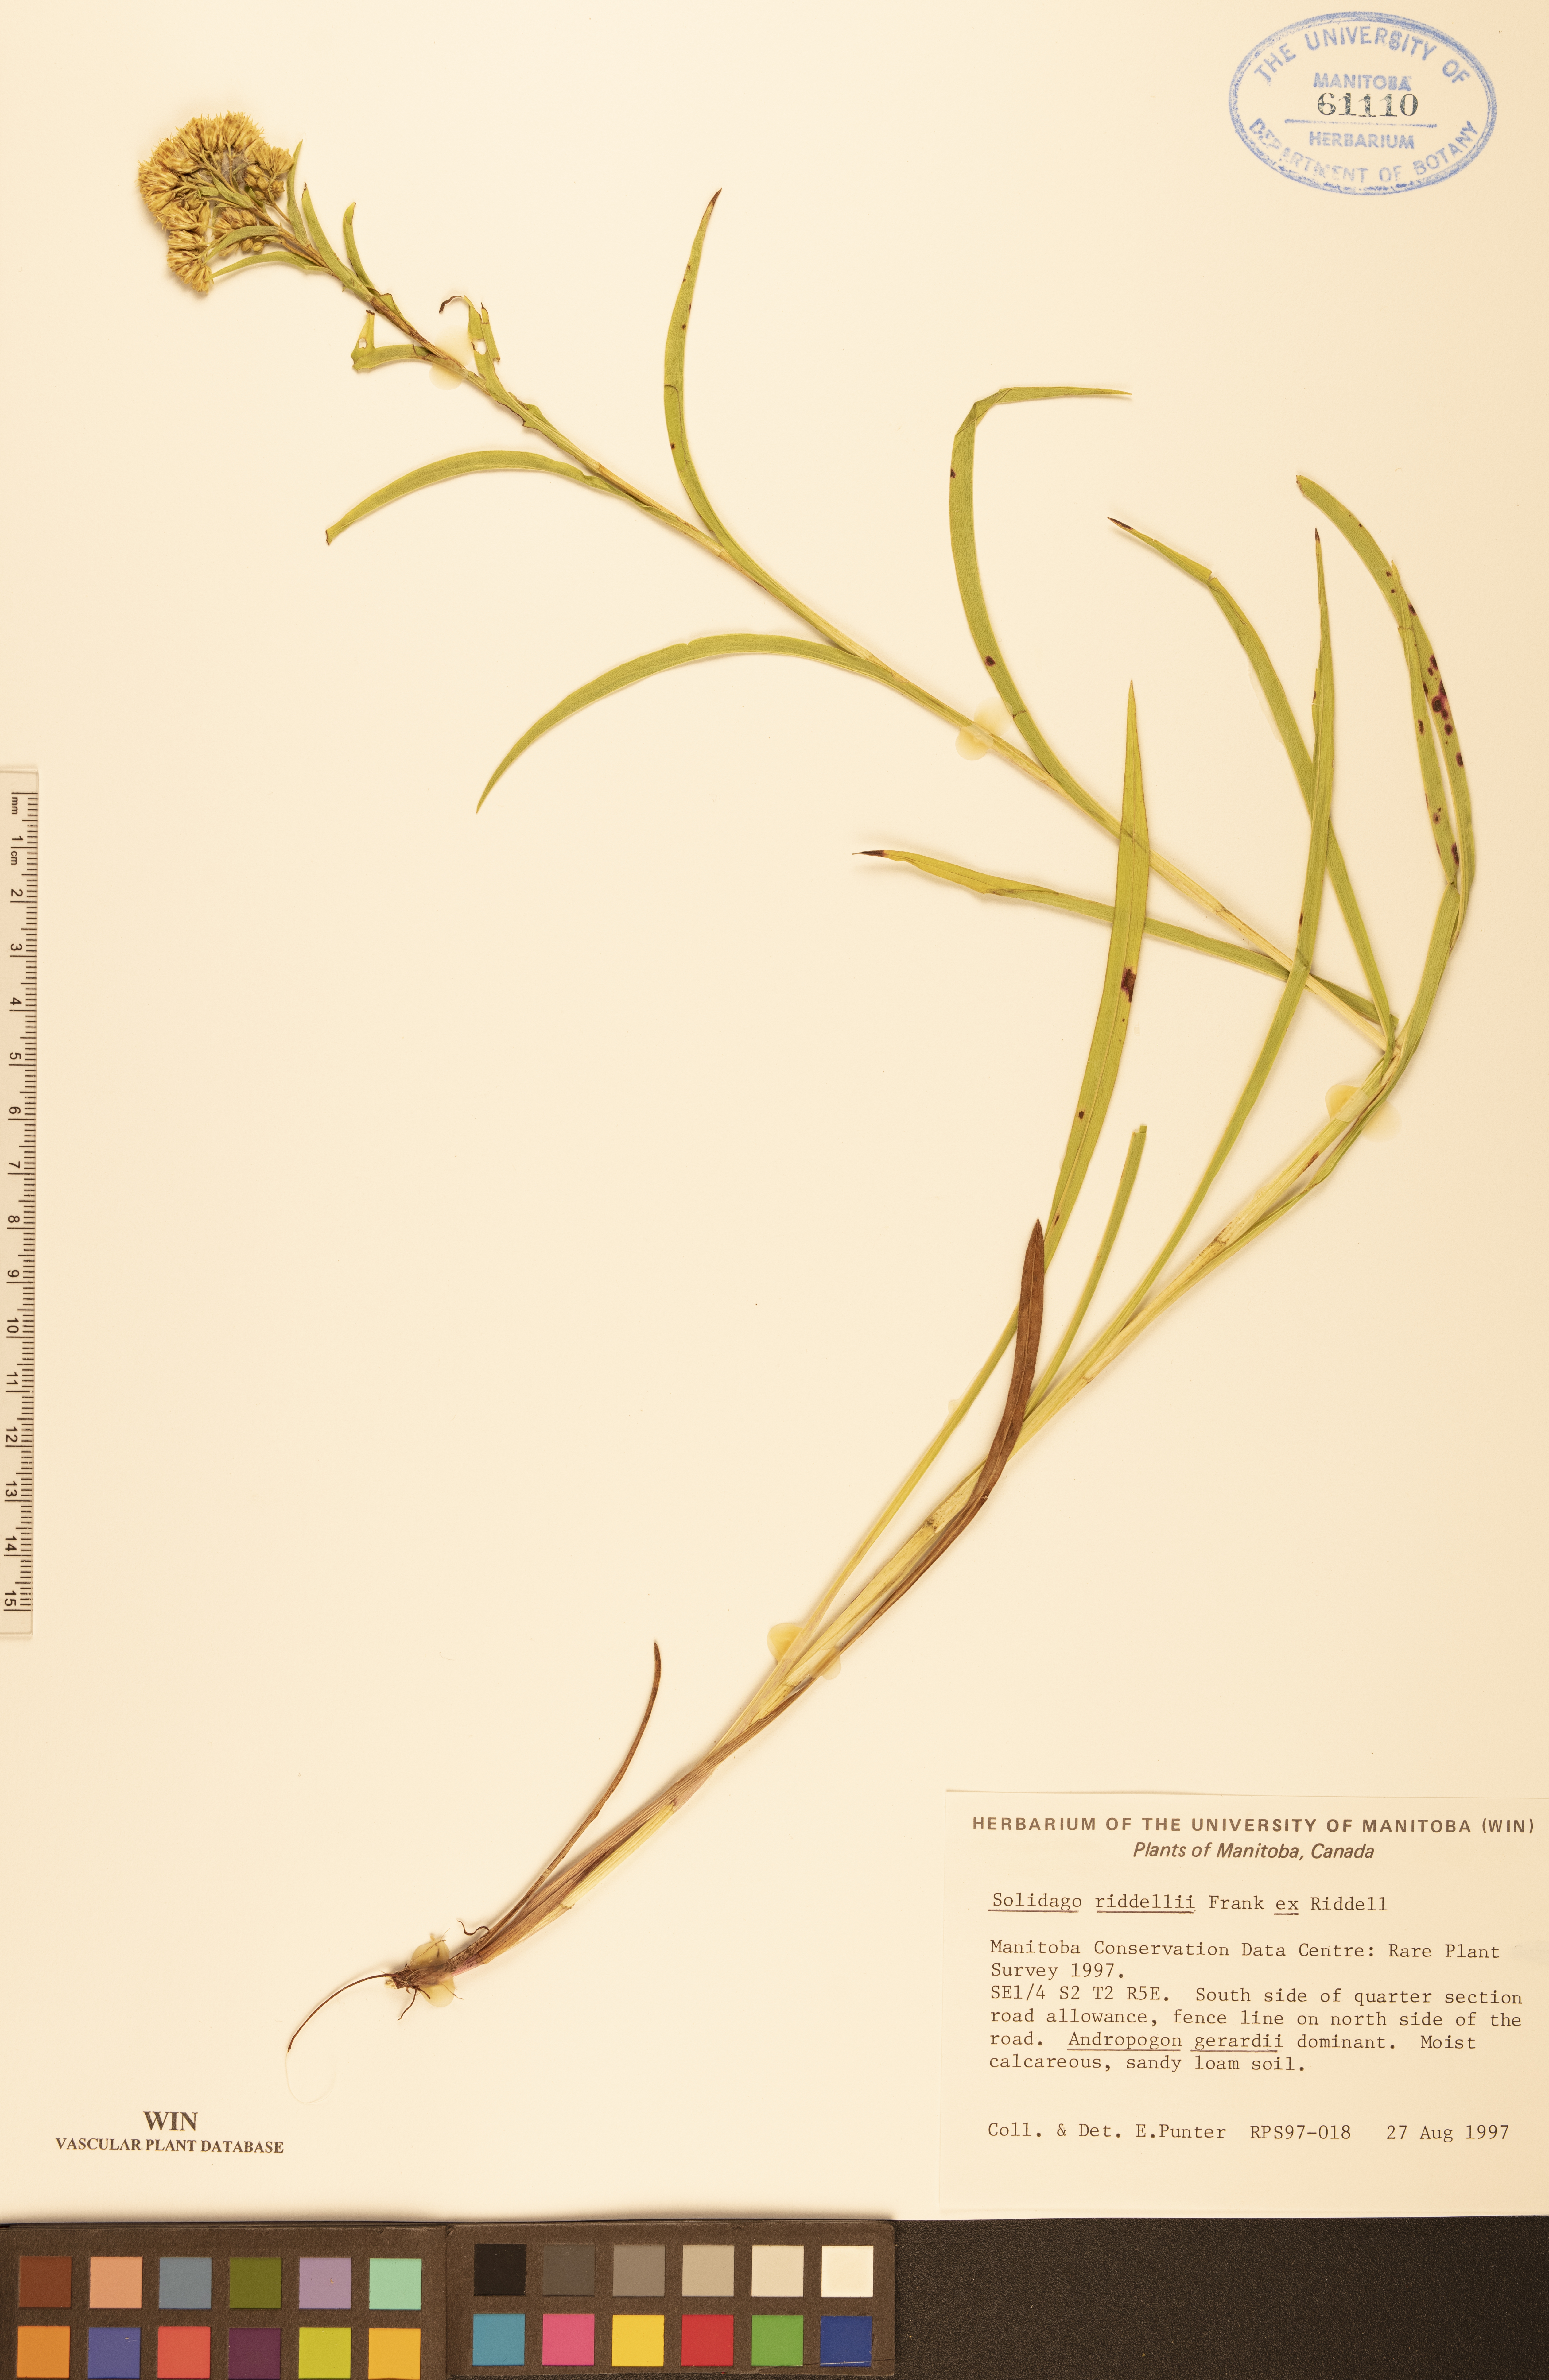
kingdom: Plantae
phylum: Tracheophyta
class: Magnoliopsida
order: Asterales
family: Asteraceae
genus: Solidago
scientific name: Solidago riddellii
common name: Riddell's goldenrod
